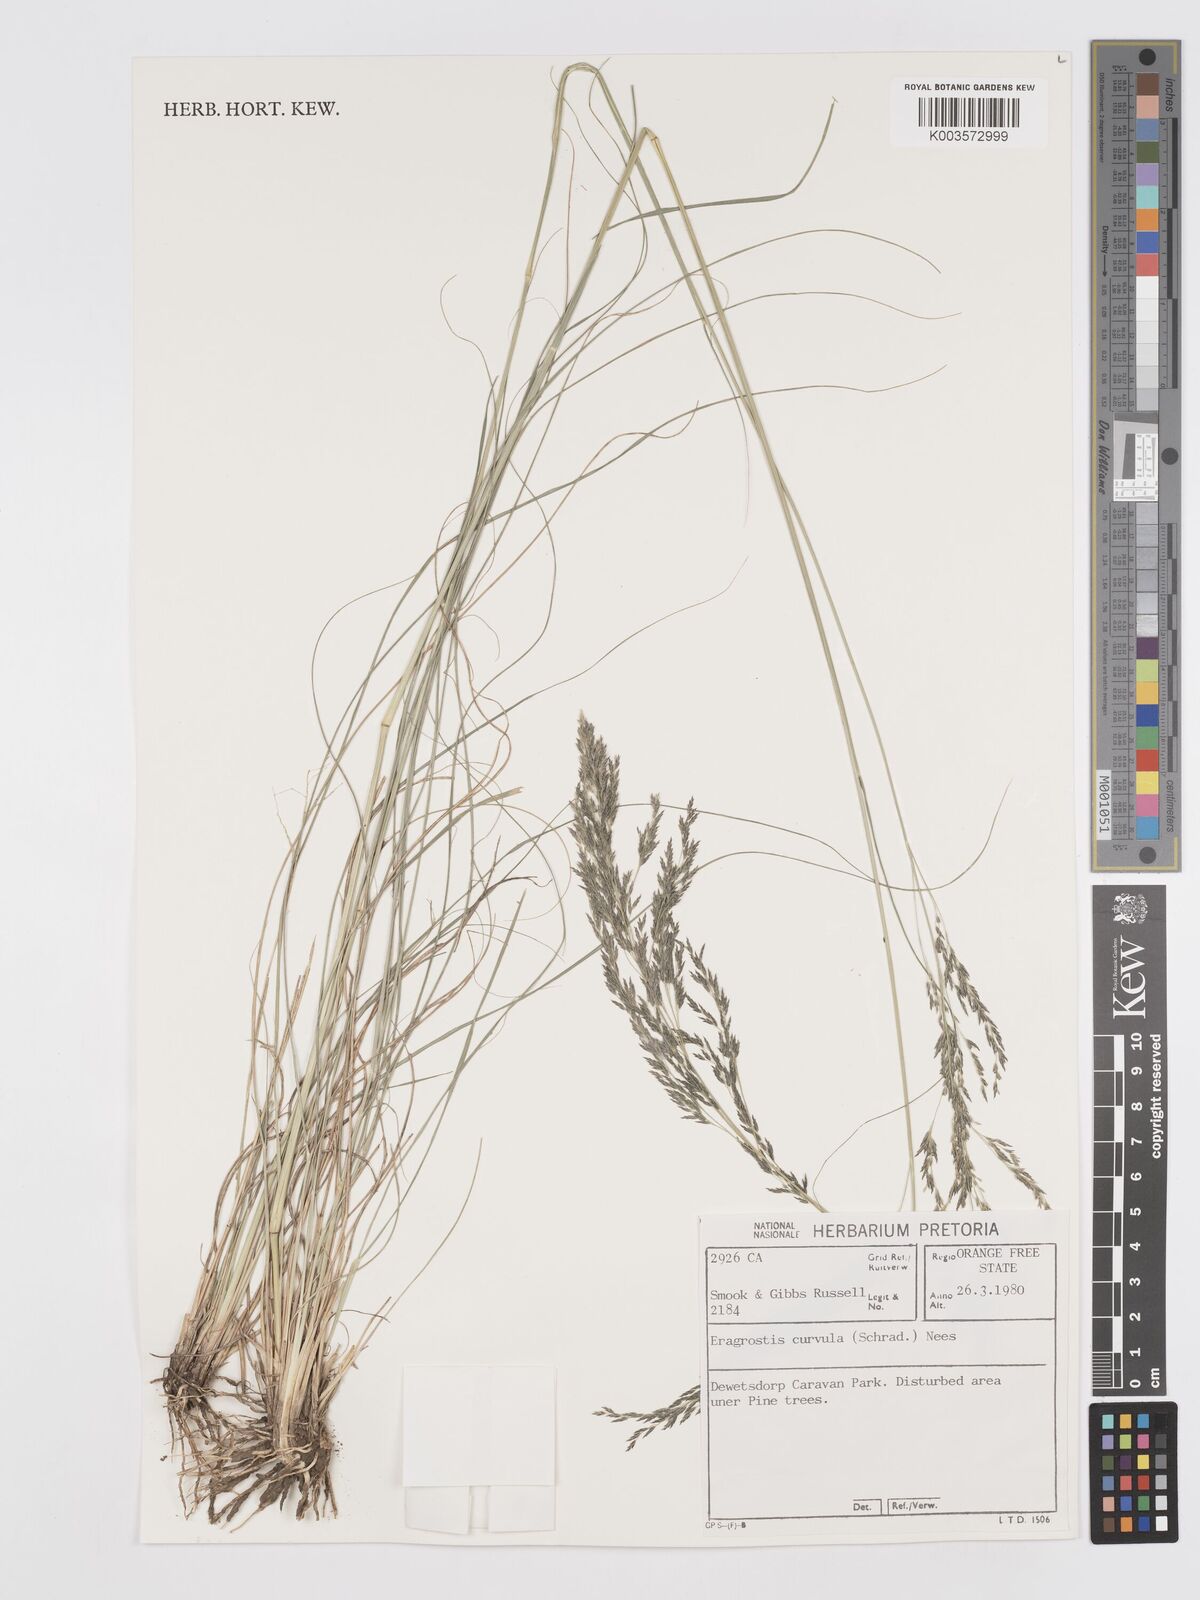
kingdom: Plantae
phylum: Tracheophyta
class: Liliopsida
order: Poales
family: Poaceae
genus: Eragrostis
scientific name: Eragrostis curvula
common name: African love-grass
